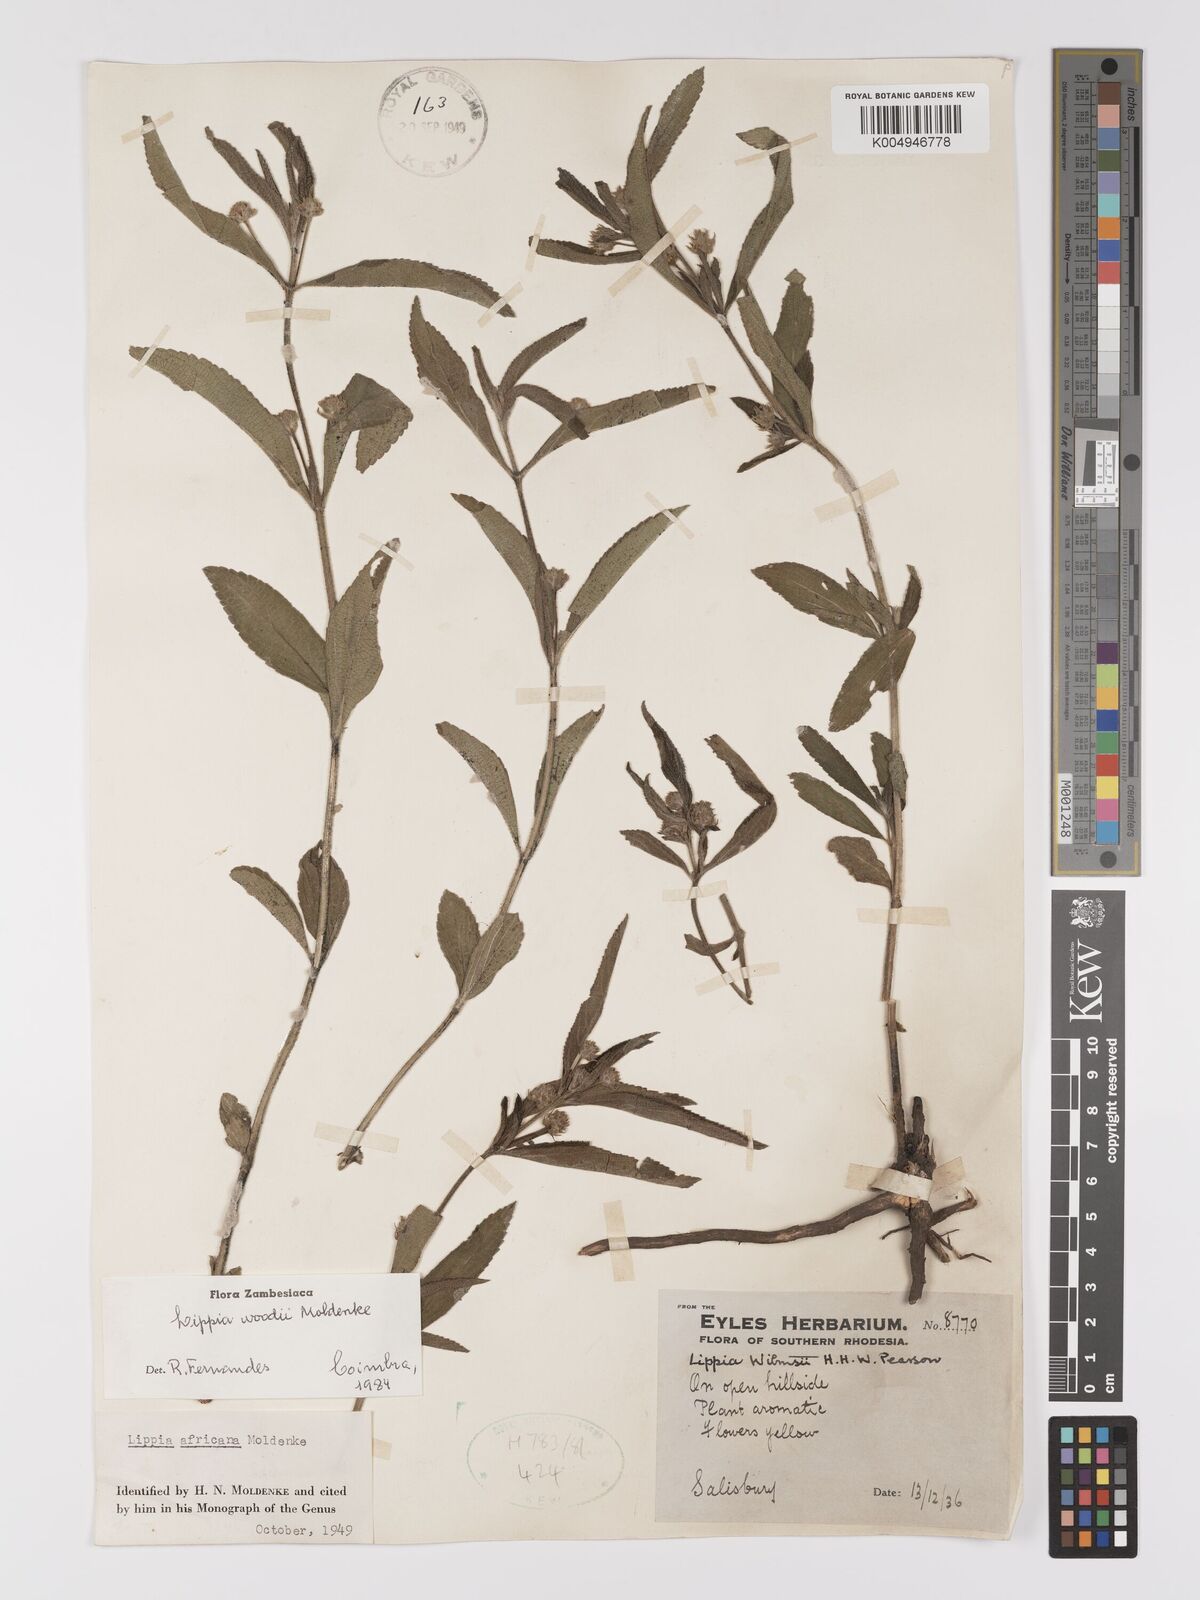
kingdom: Plantae
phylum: Tracheophyta
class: Magnoliopsida
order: Lamiales
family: Verbenaceae
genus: Lippia
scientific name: Lippia woodii
